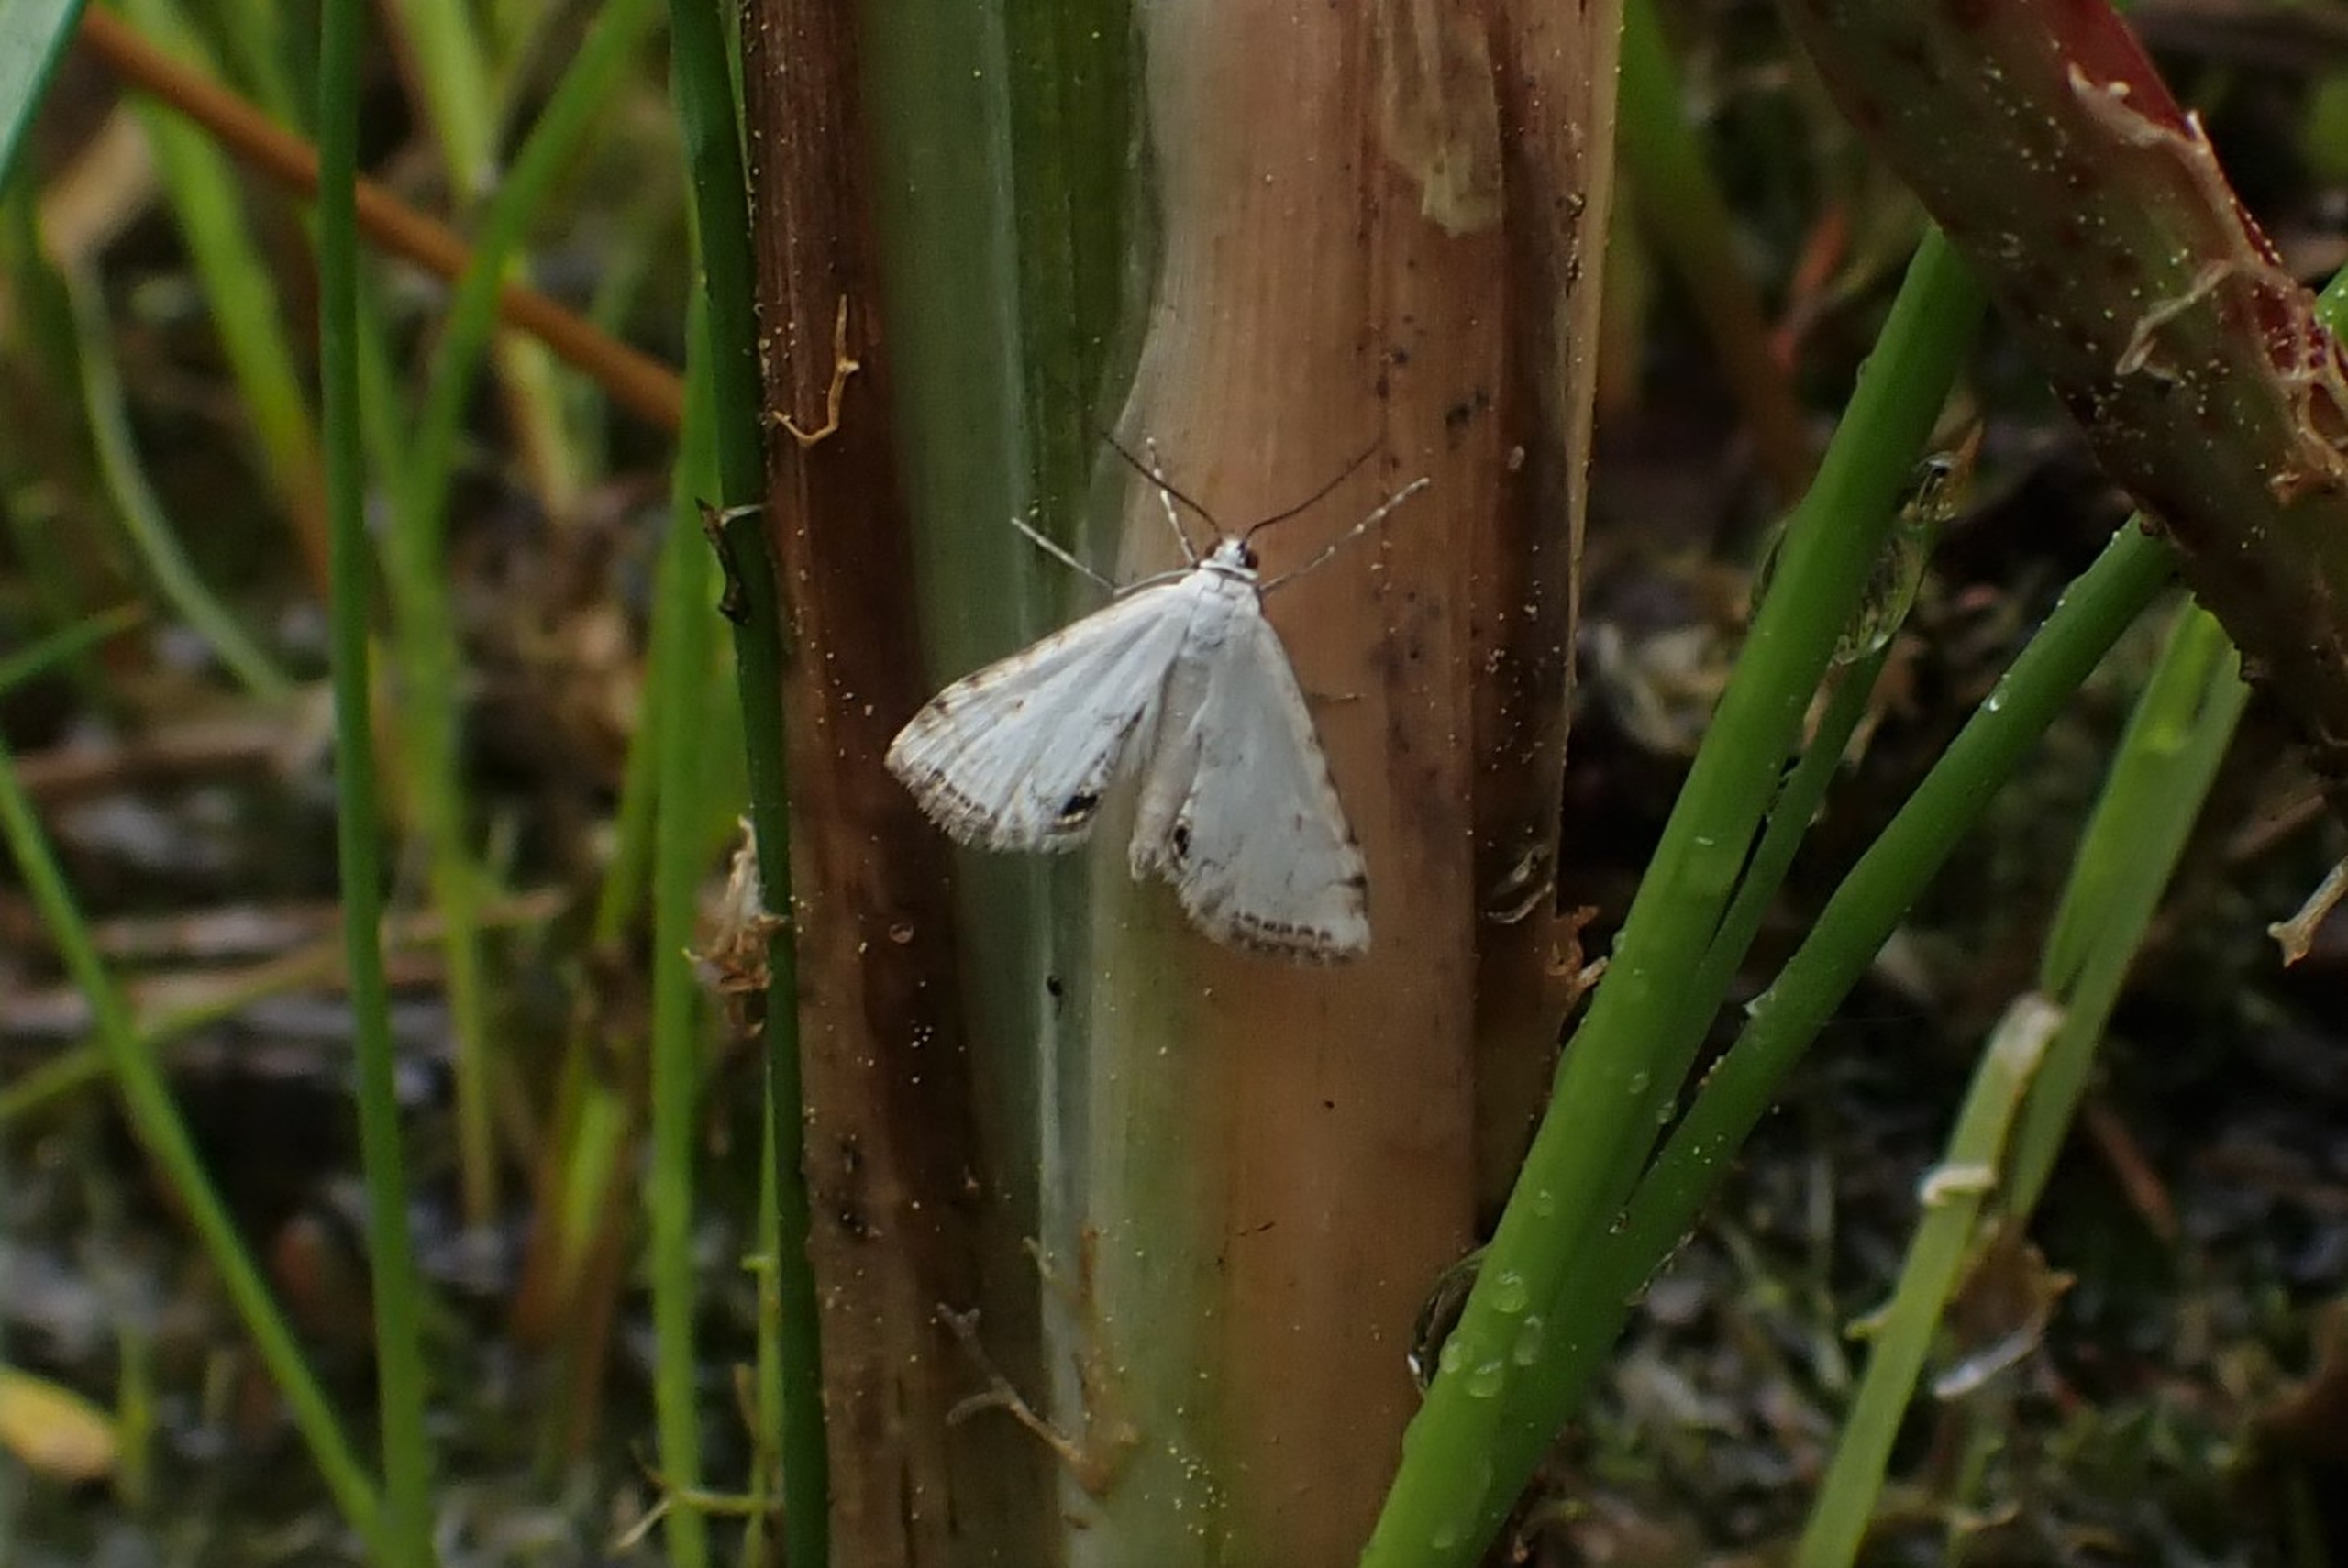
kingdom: Animalia
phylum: Arthropoda
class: Insecta
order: Lepidoptera
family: Crambidae
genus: Cataclysta
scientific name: Cataclysta lemnata
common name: Andemadhalvmøl
